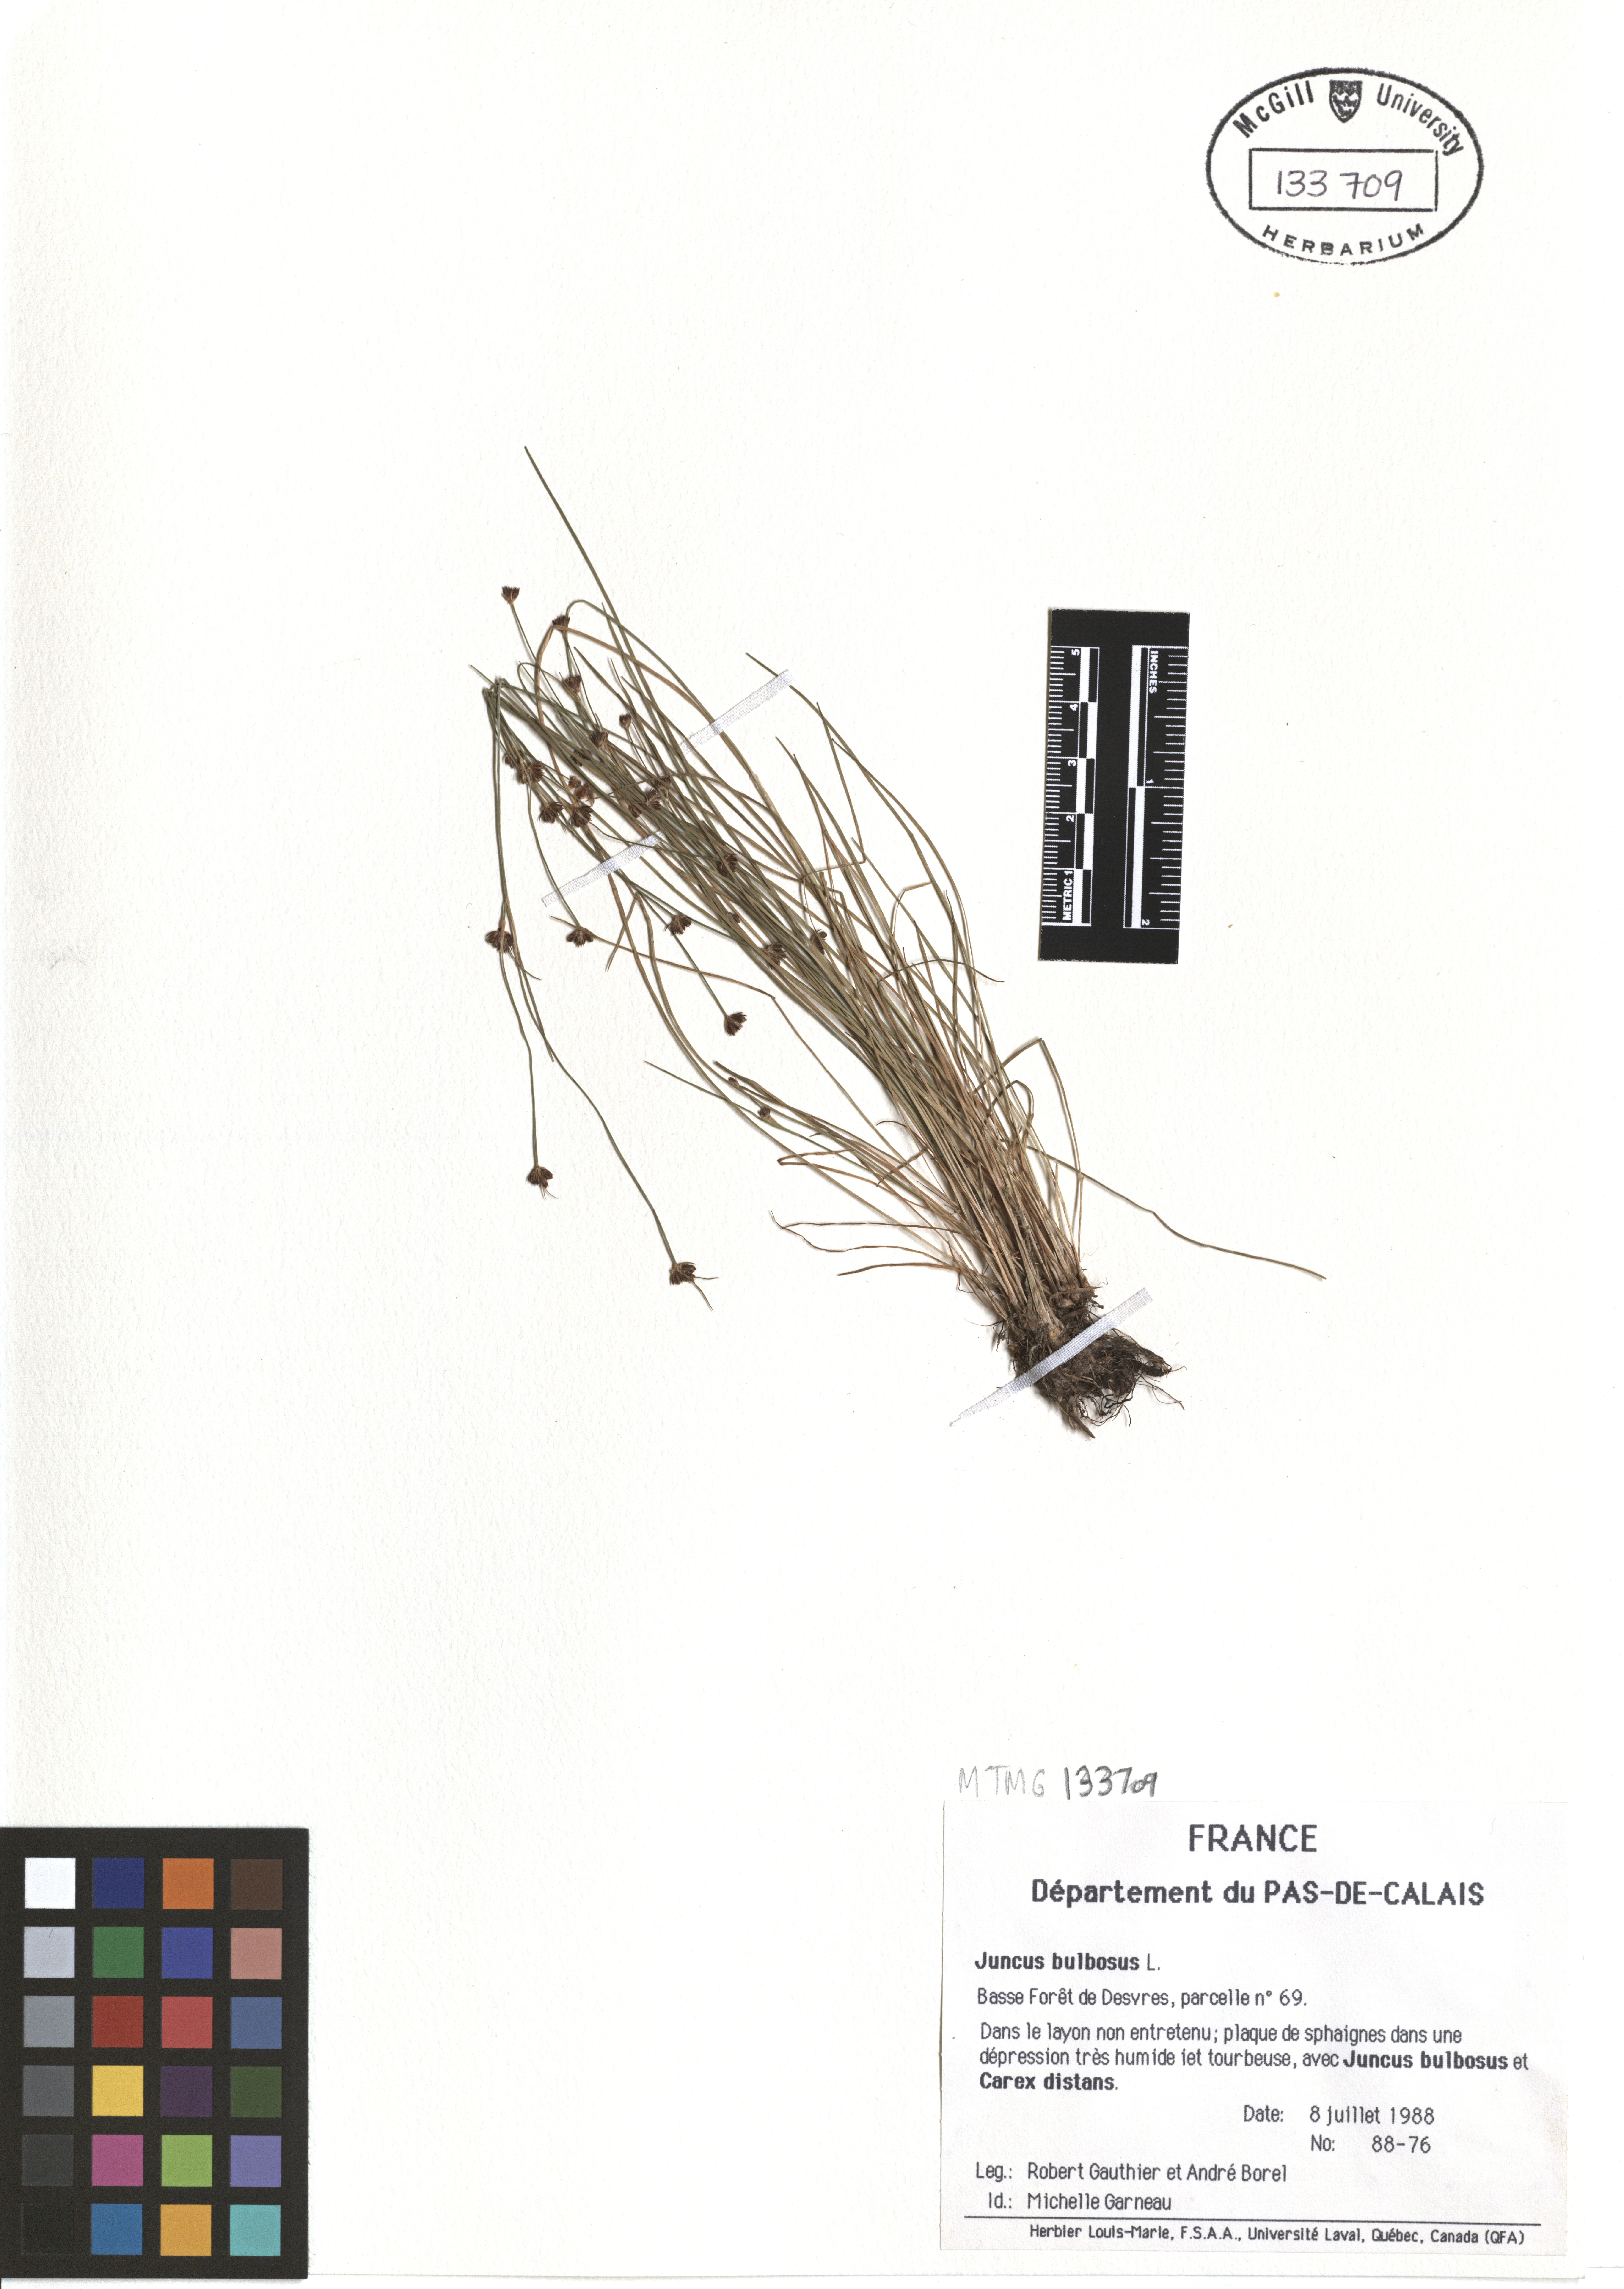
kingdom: Plantae
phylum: Tracheophyta
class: Liliopsida
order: Poales
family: Juncaceae
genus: Juncus
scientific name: Juncus bulbosus
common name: Bulbous rush
